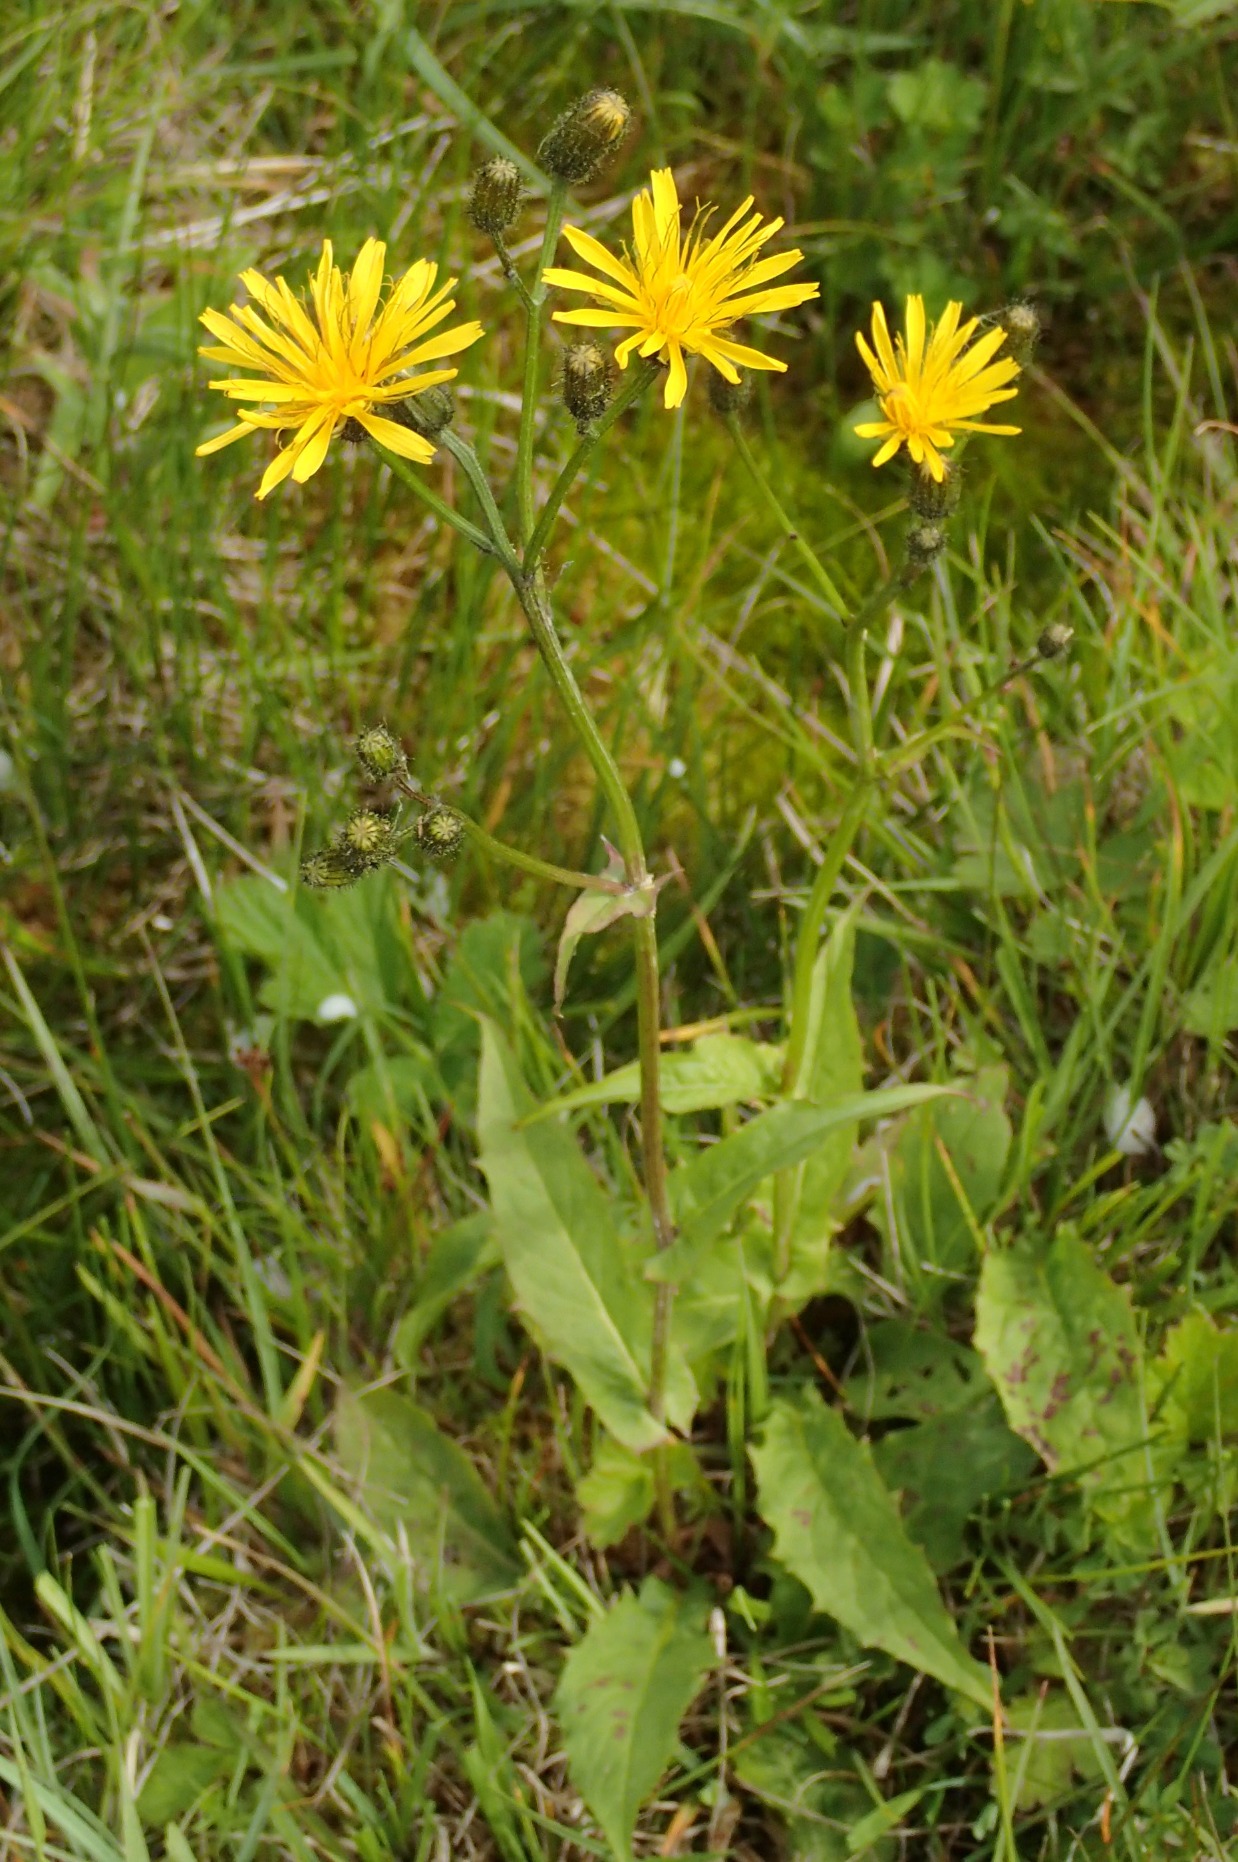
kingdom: Plantae
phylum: Tracheophyta
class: Magnoliopsida
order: Asterales
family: Asteraceae
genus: Crepis
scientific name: Crepis paludosa
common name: Kær-høgeskæg
